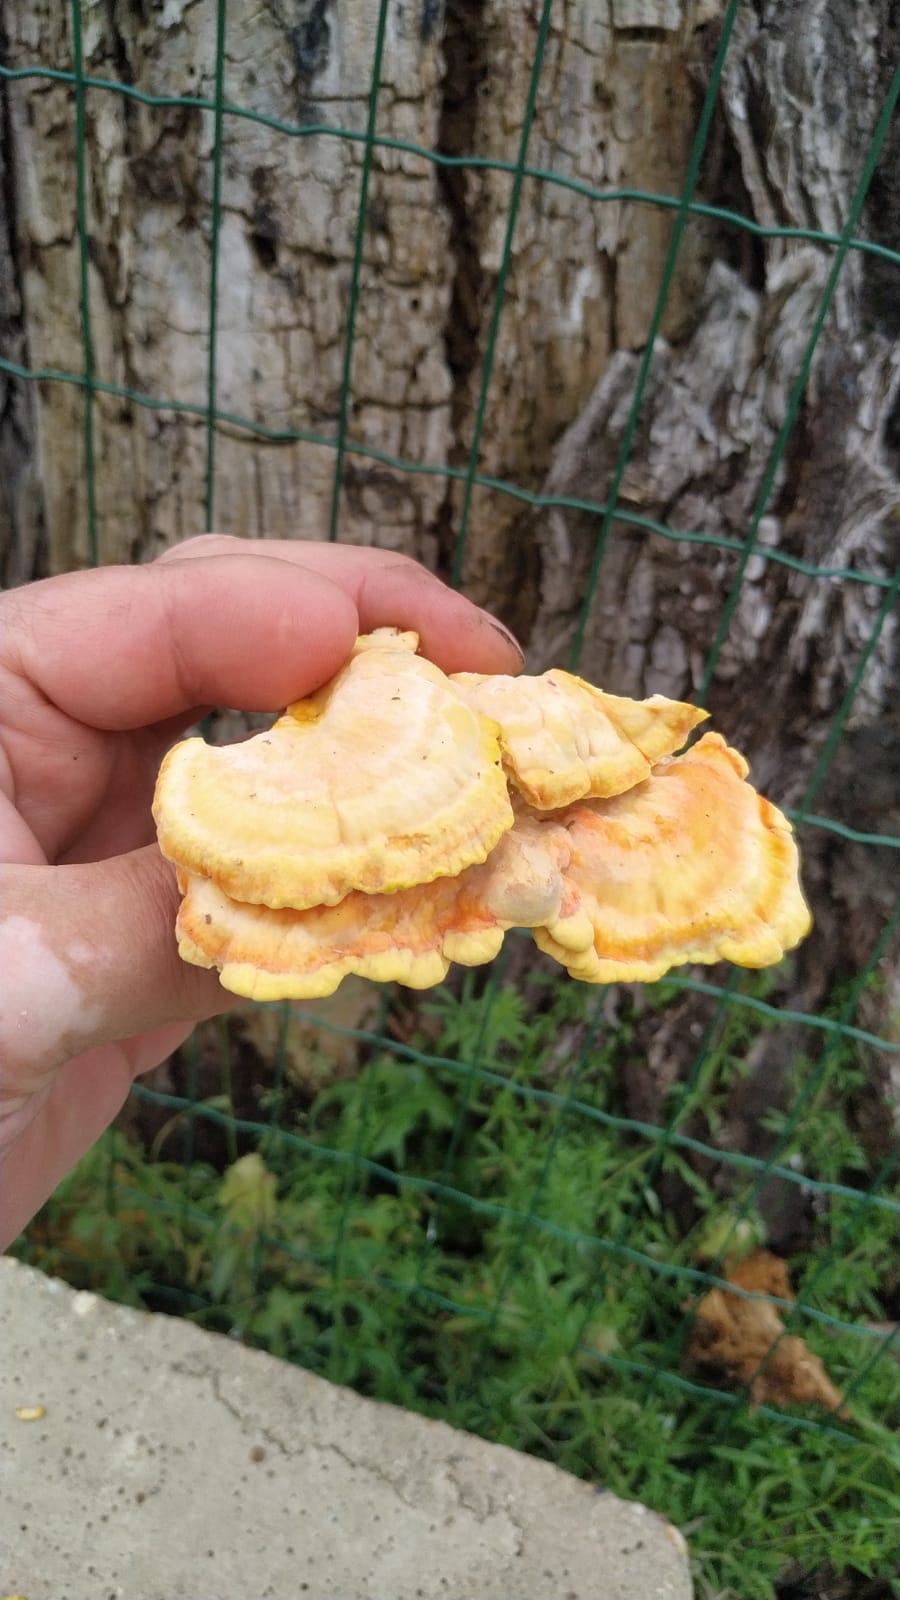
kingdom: Fungi
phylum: Basidiomycota
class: Agaricomycetes
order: Polyporales
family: Laetiporaceae
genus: Laetiporus
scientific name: Laetiporus sulphureus
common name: svovlporesvamp
